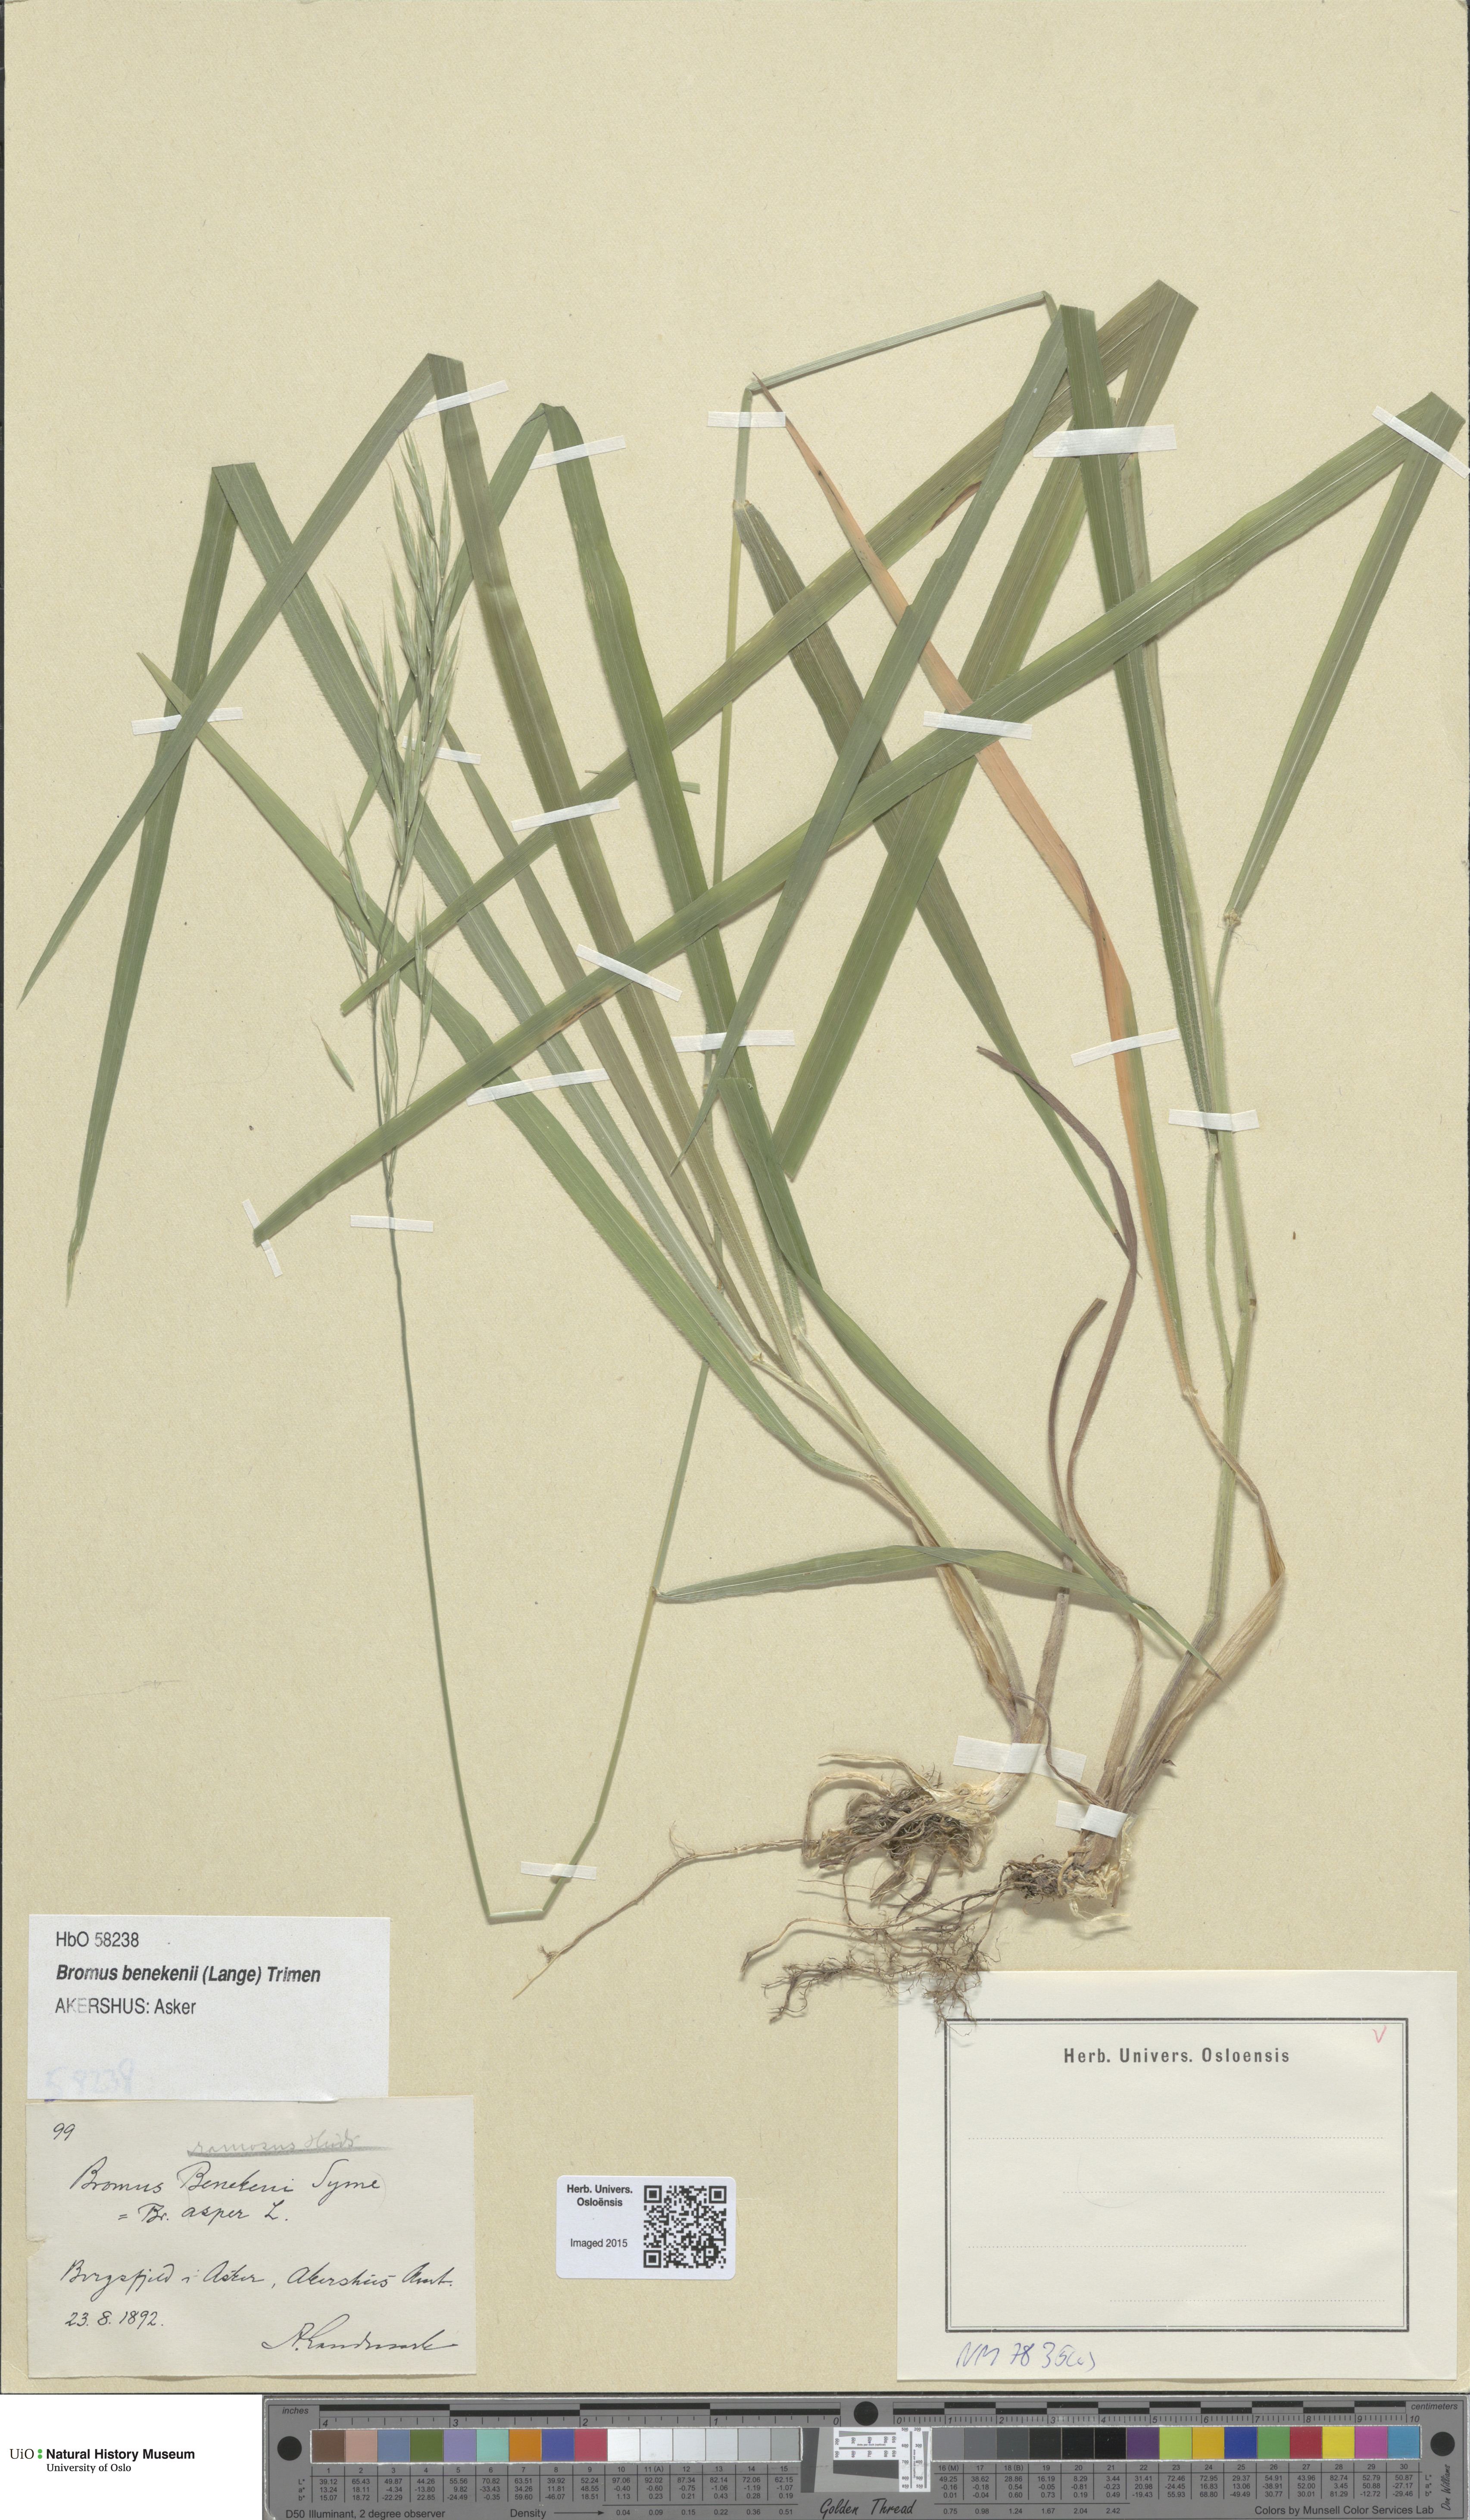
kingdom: Plantae
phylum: Tracheophyta
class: Liliopsida
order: Poales
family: Poaceae
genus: Bromus
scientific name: Bromus benekenii
